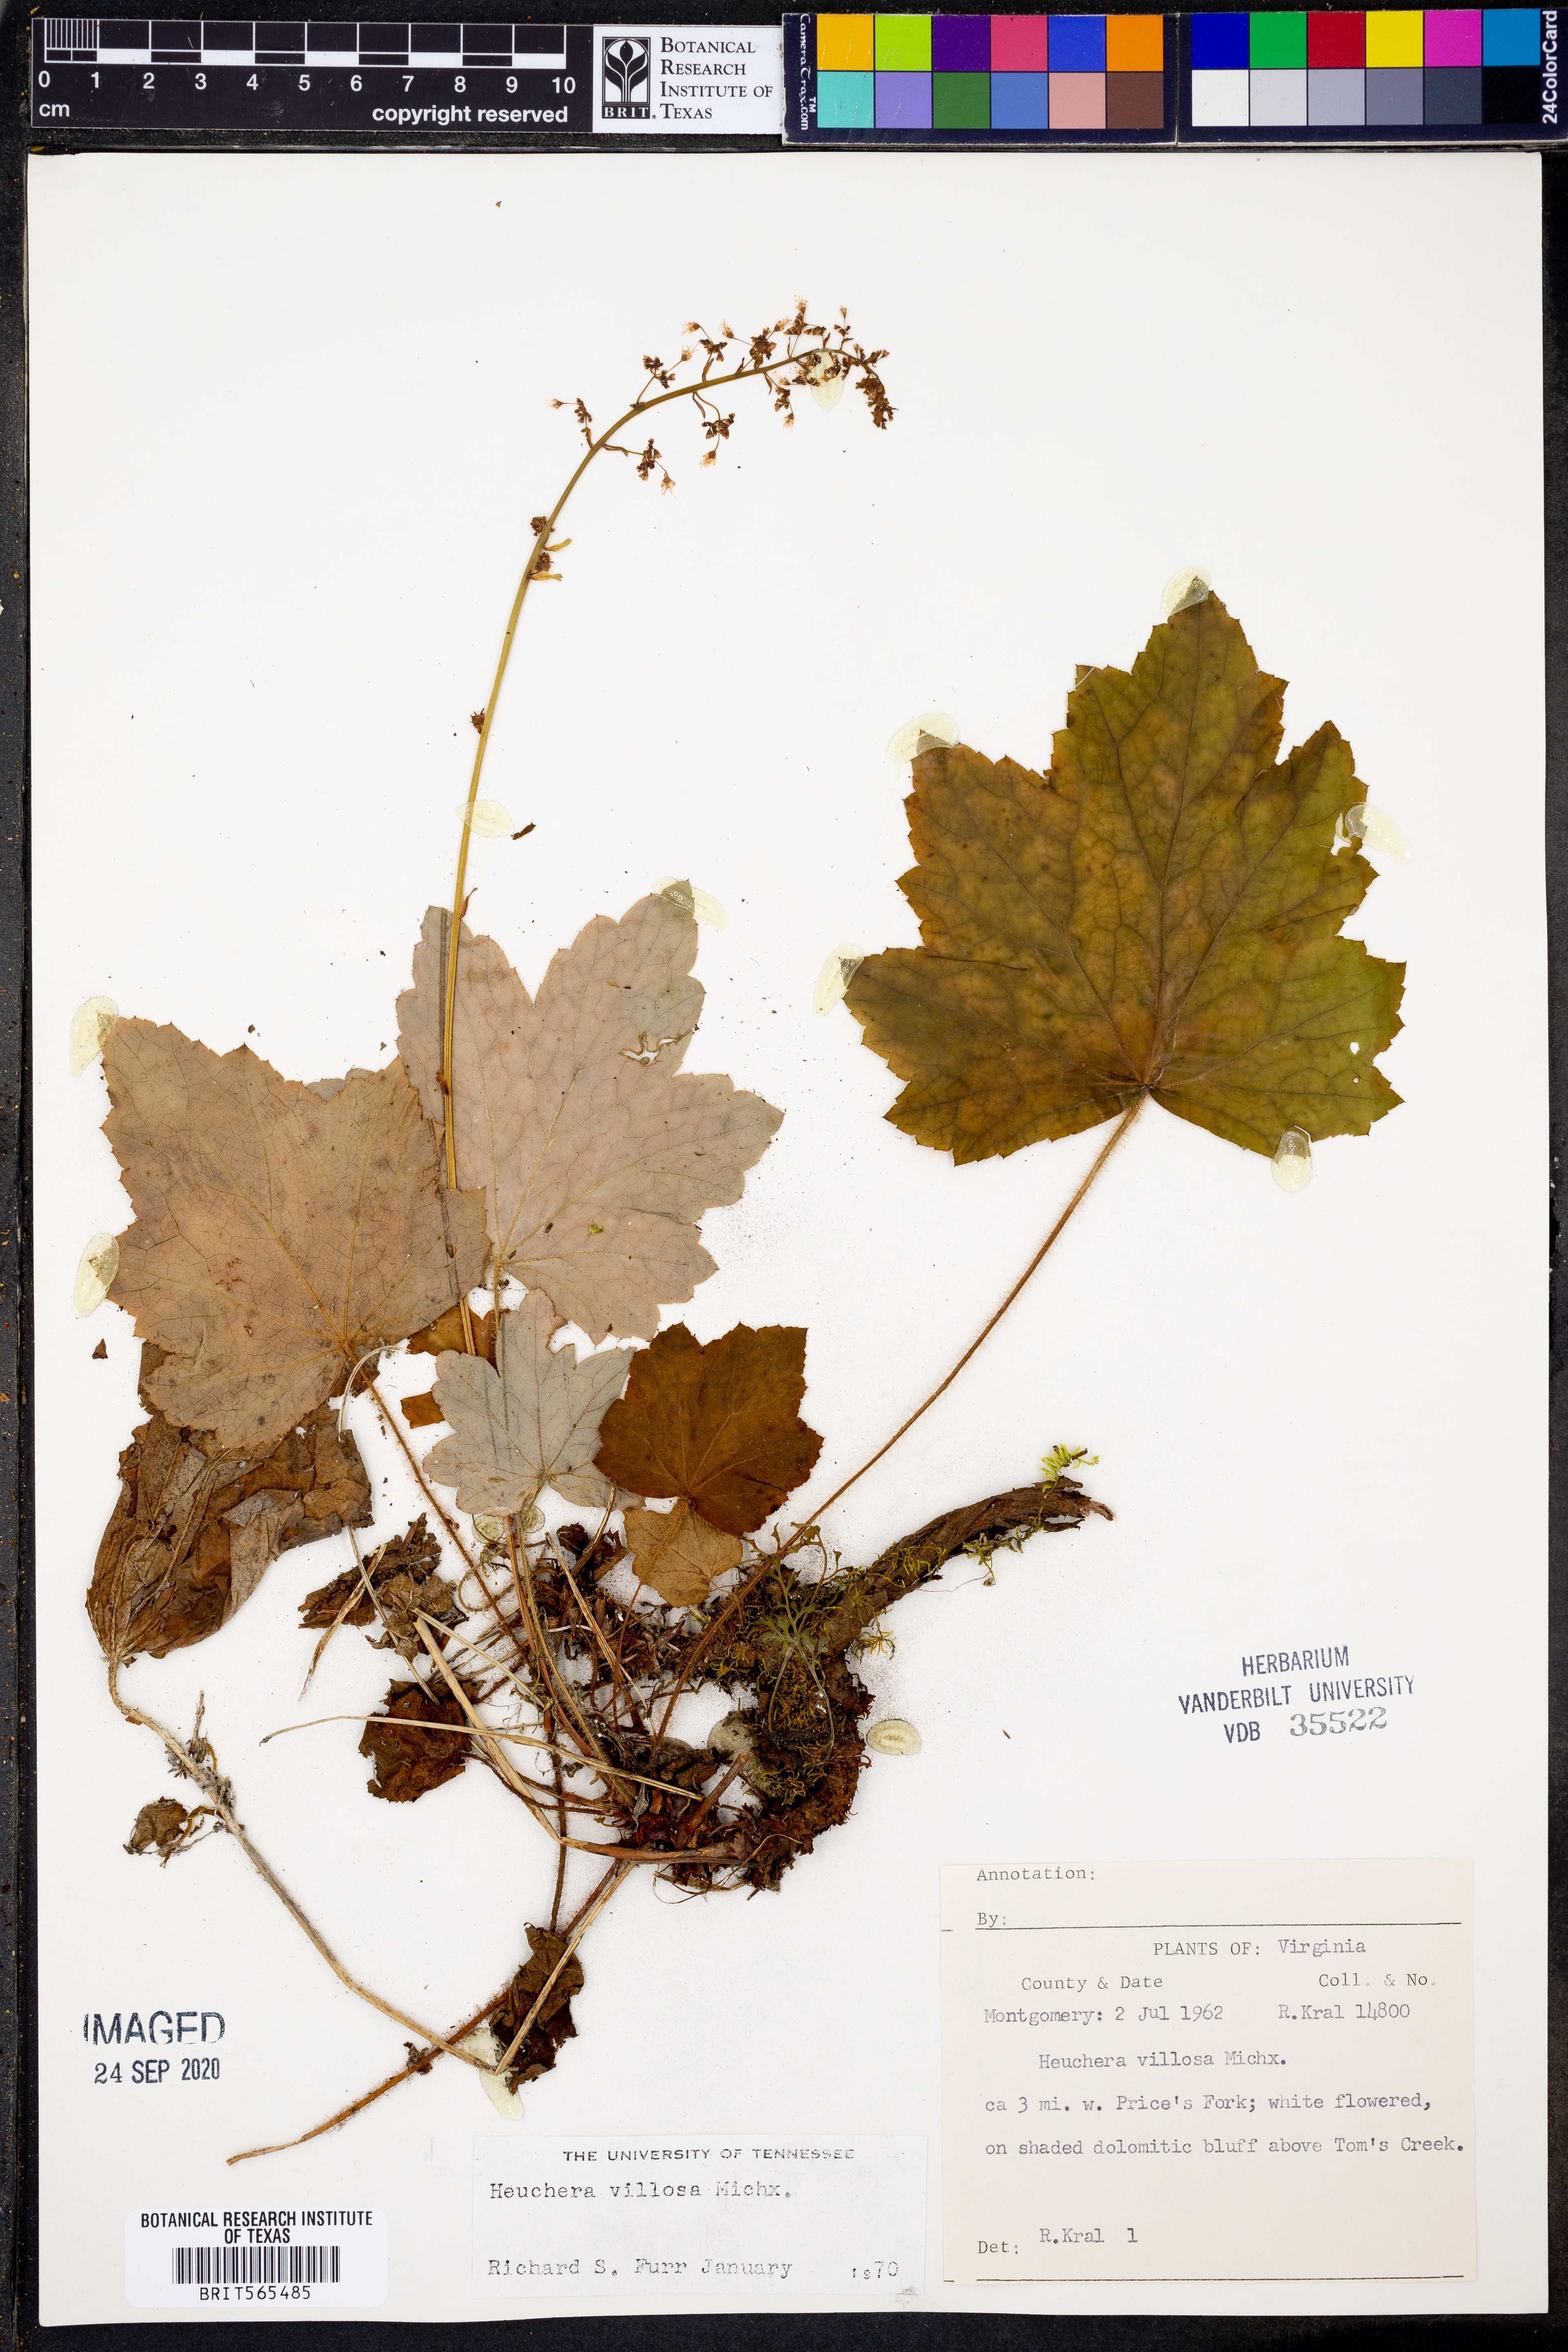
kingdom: Plantae
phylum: Tracheophyta
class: Magnoliopsida
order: Saxifragales
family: Saxifragaceae
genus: Heuchera
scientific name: Heuchera villosa
